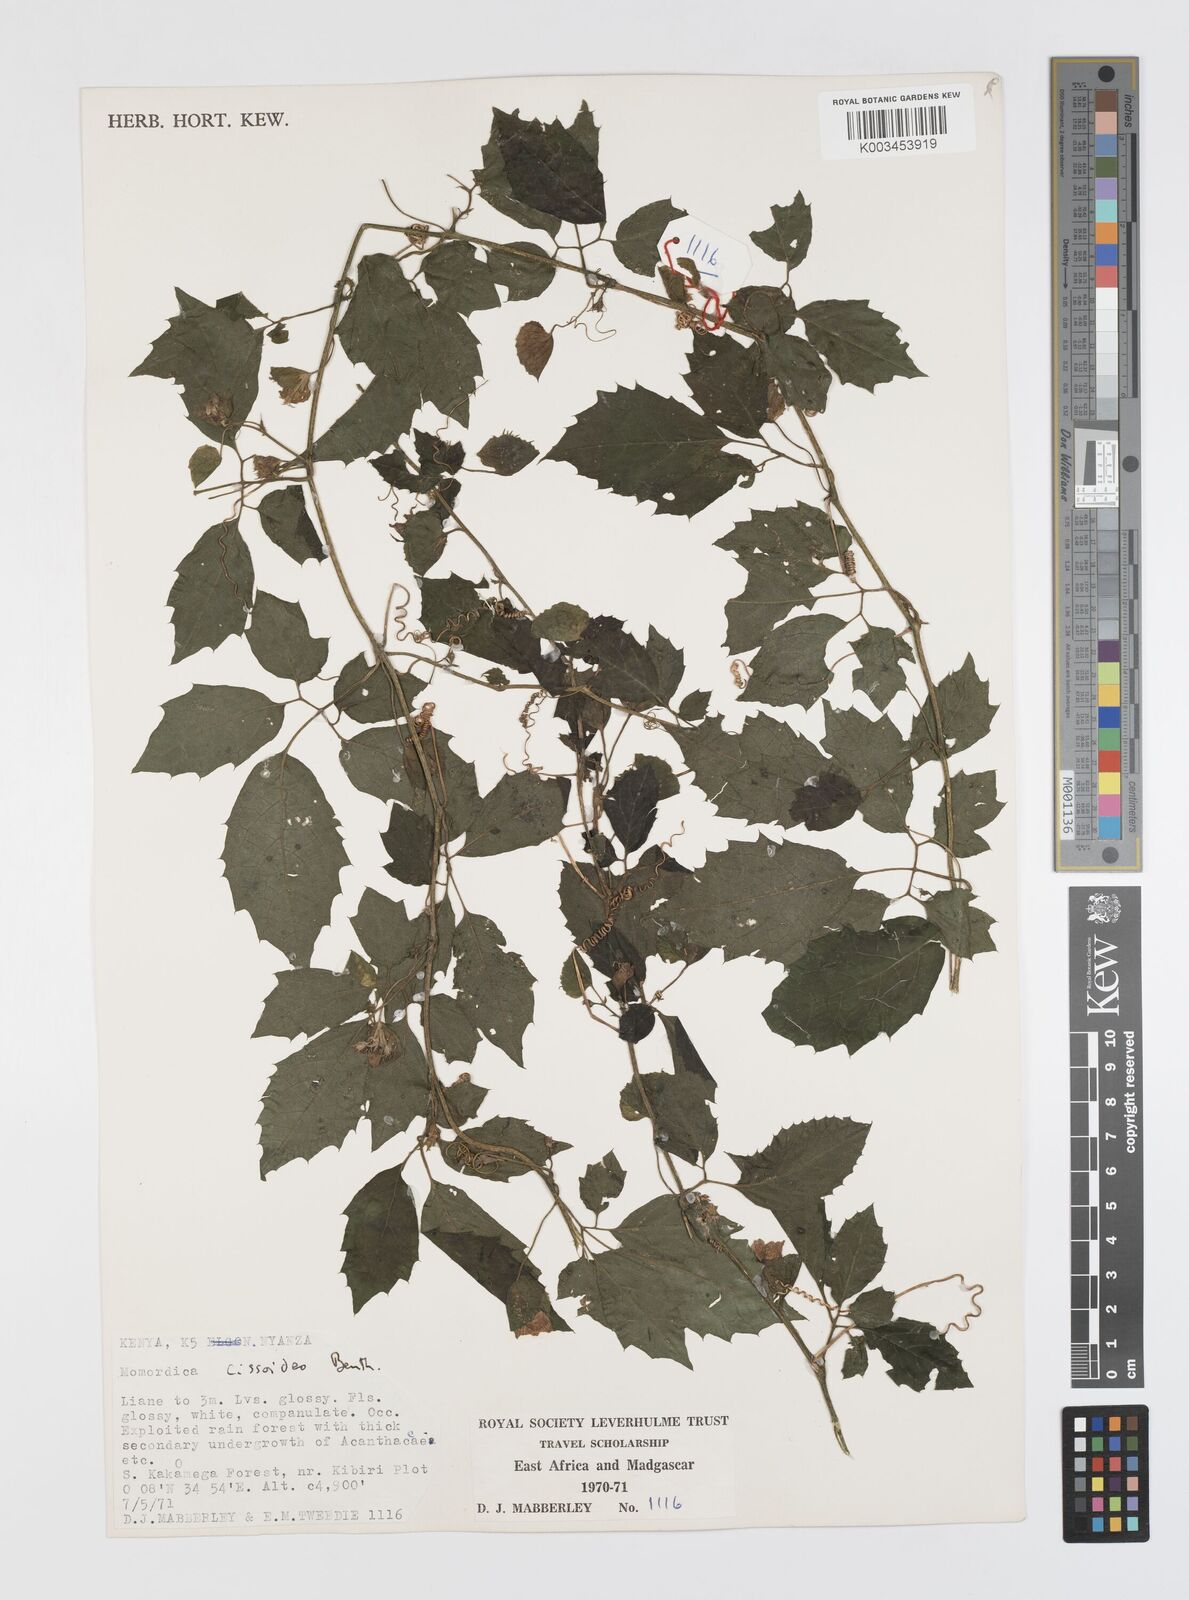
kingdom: Plantae
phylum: Tracheophyta
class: Magnoliopsida
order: Cucurbitales
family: Cucurbitaceae
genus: Momordica
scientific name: Momordica cissoides
